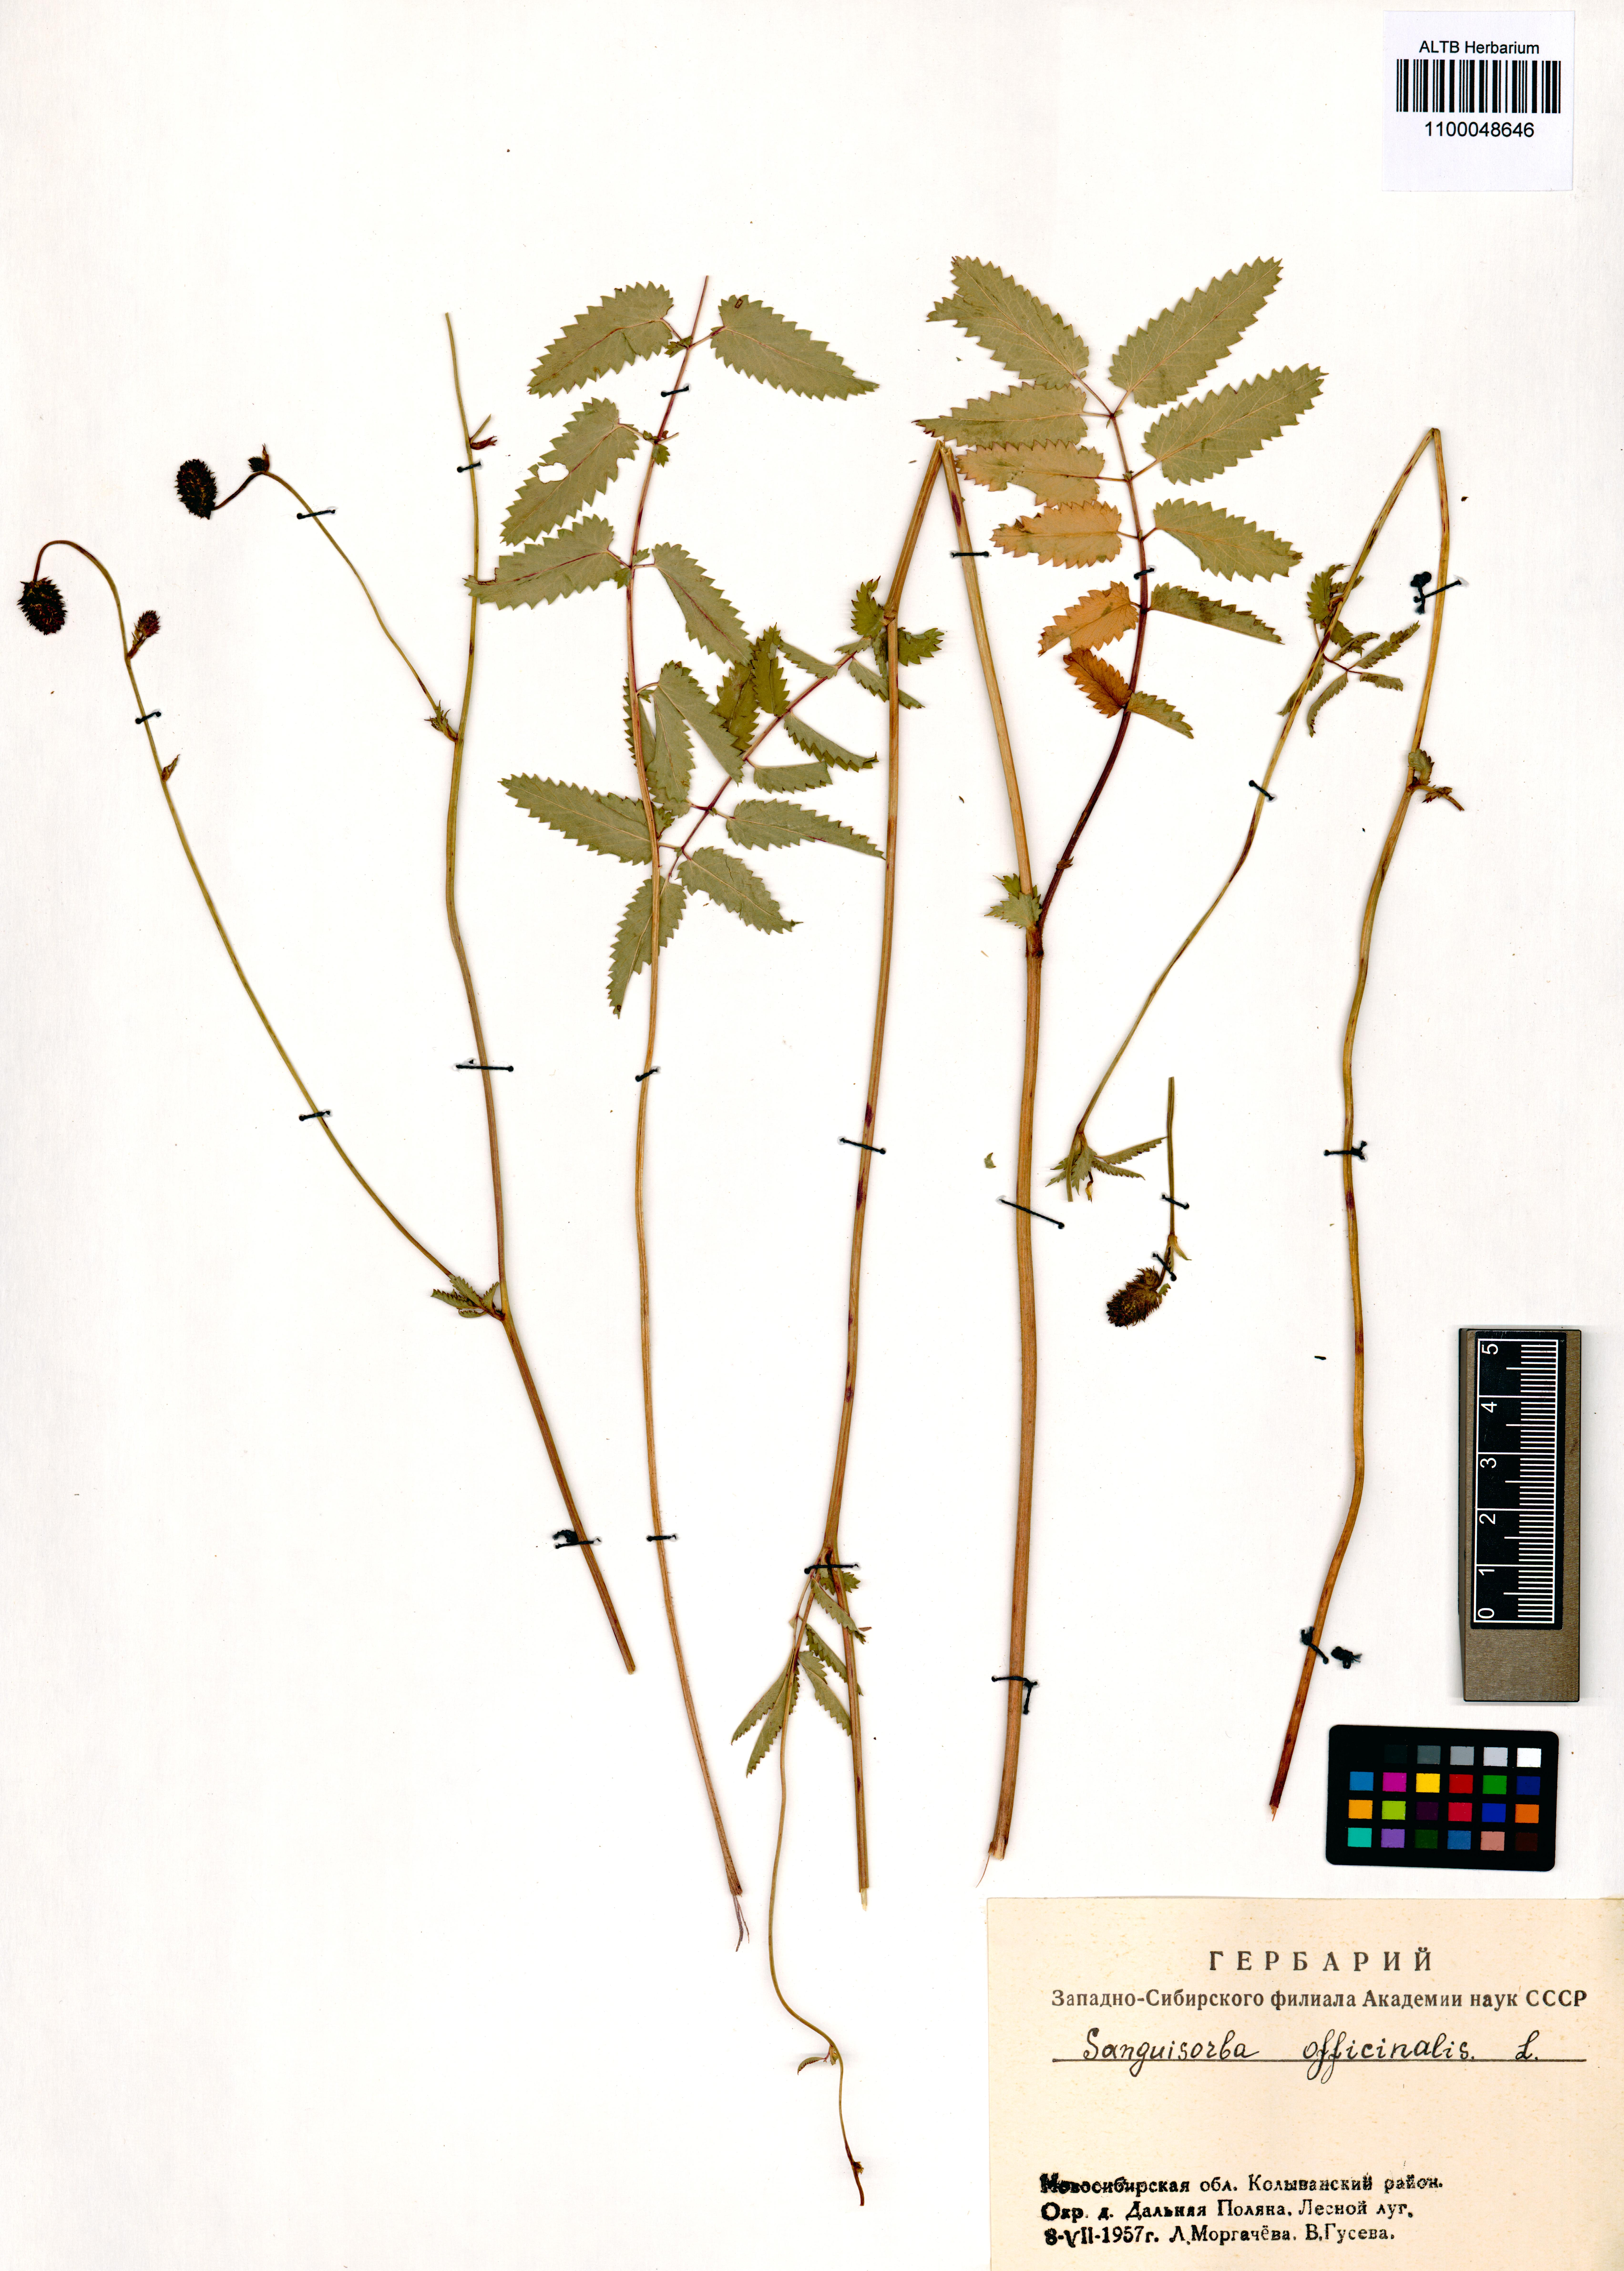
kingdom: Plantae
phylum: Tracheophyta
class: Magnoliopsida
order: Rosales
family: Rosaceae
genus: Sanguisorba
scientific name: Sanguisorba officinalis
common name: Great burnet
